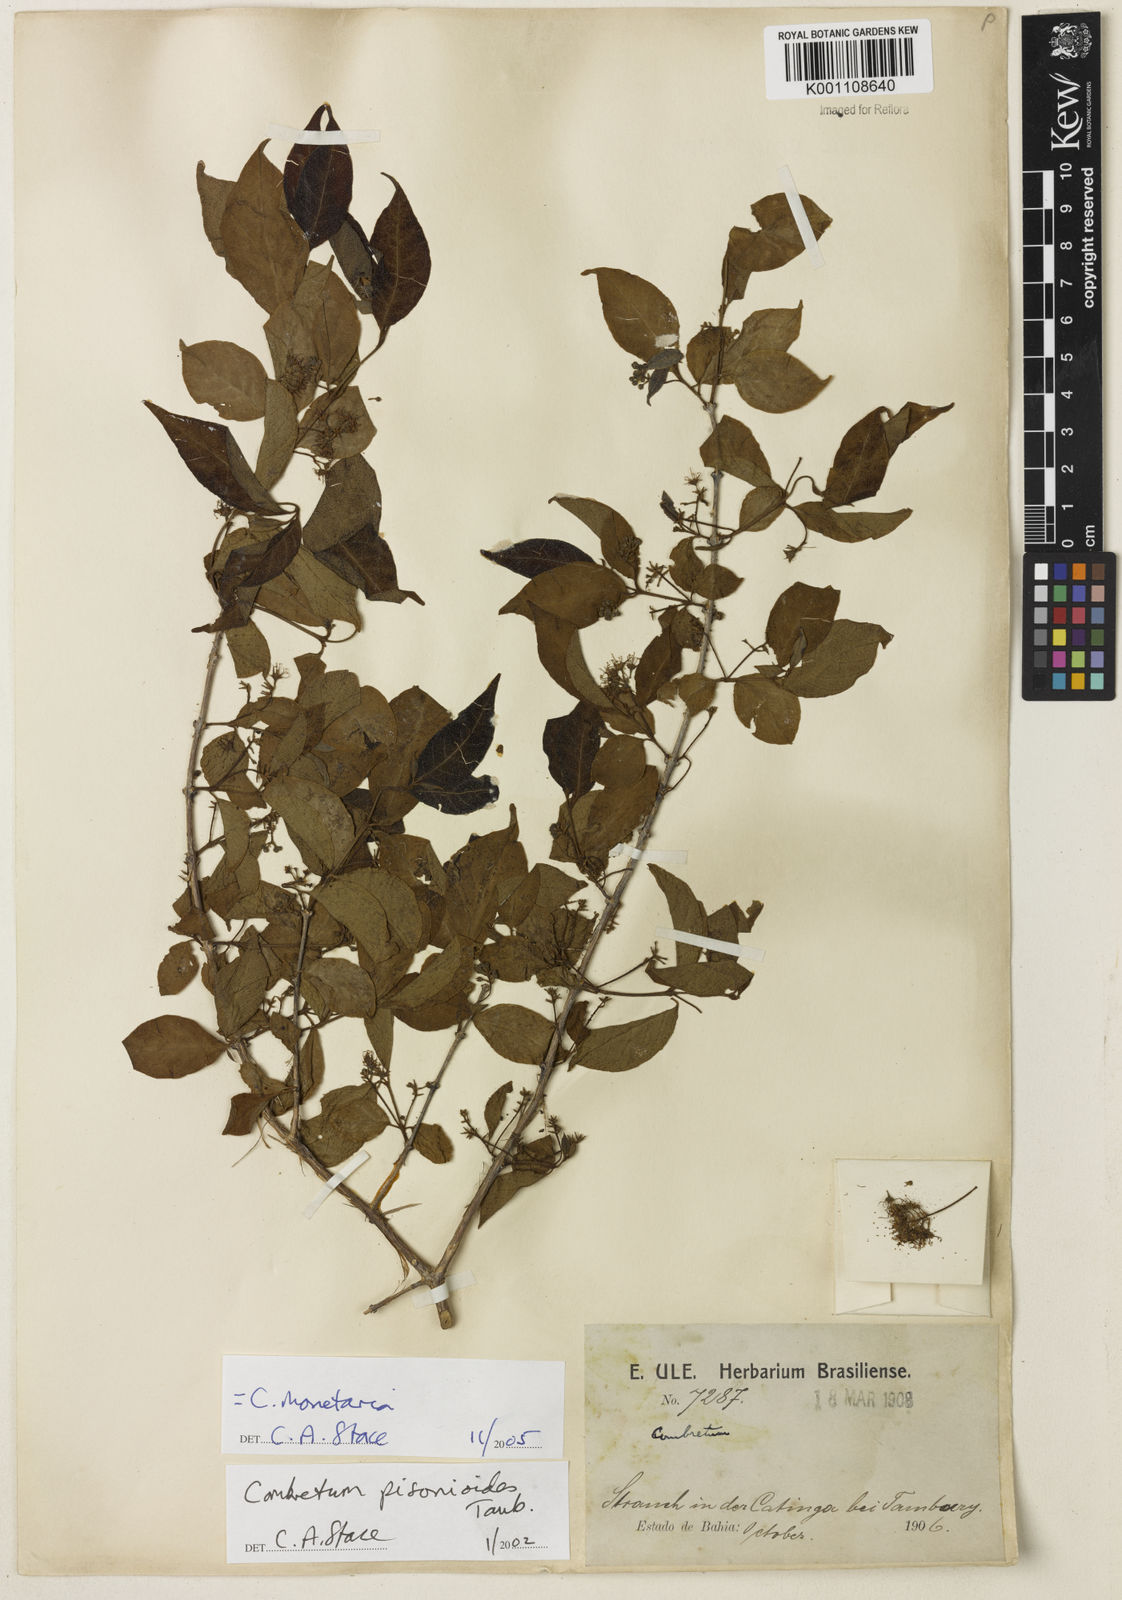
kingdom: Plantae
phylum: Tracheophyta
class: Magnoliopsida
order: Myrtales
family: Combretaceae
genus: Combretum
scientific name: Combretum pisonioides
